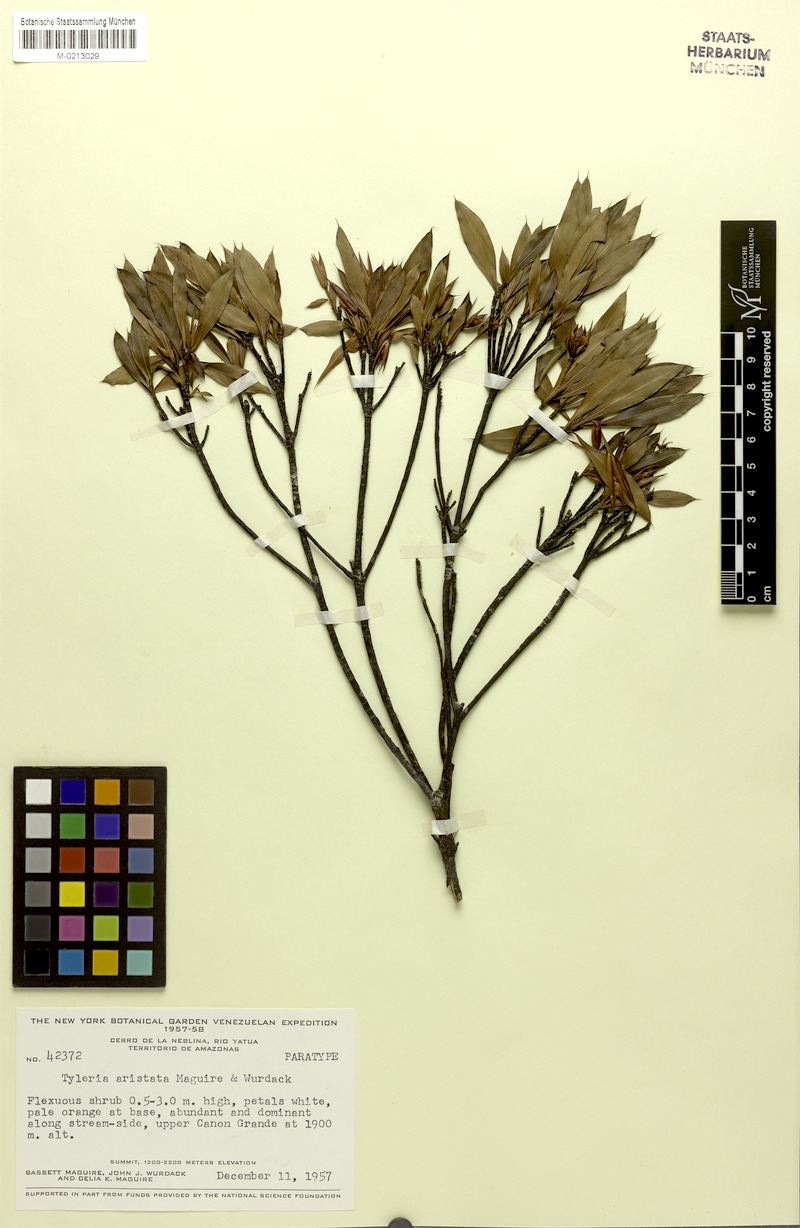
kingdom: Plantae
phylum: Tracheophyta
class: Magnoliopsida
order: Malpighiales
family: Ochnaceae
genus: Tyleria
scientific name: Tyleria aristata
